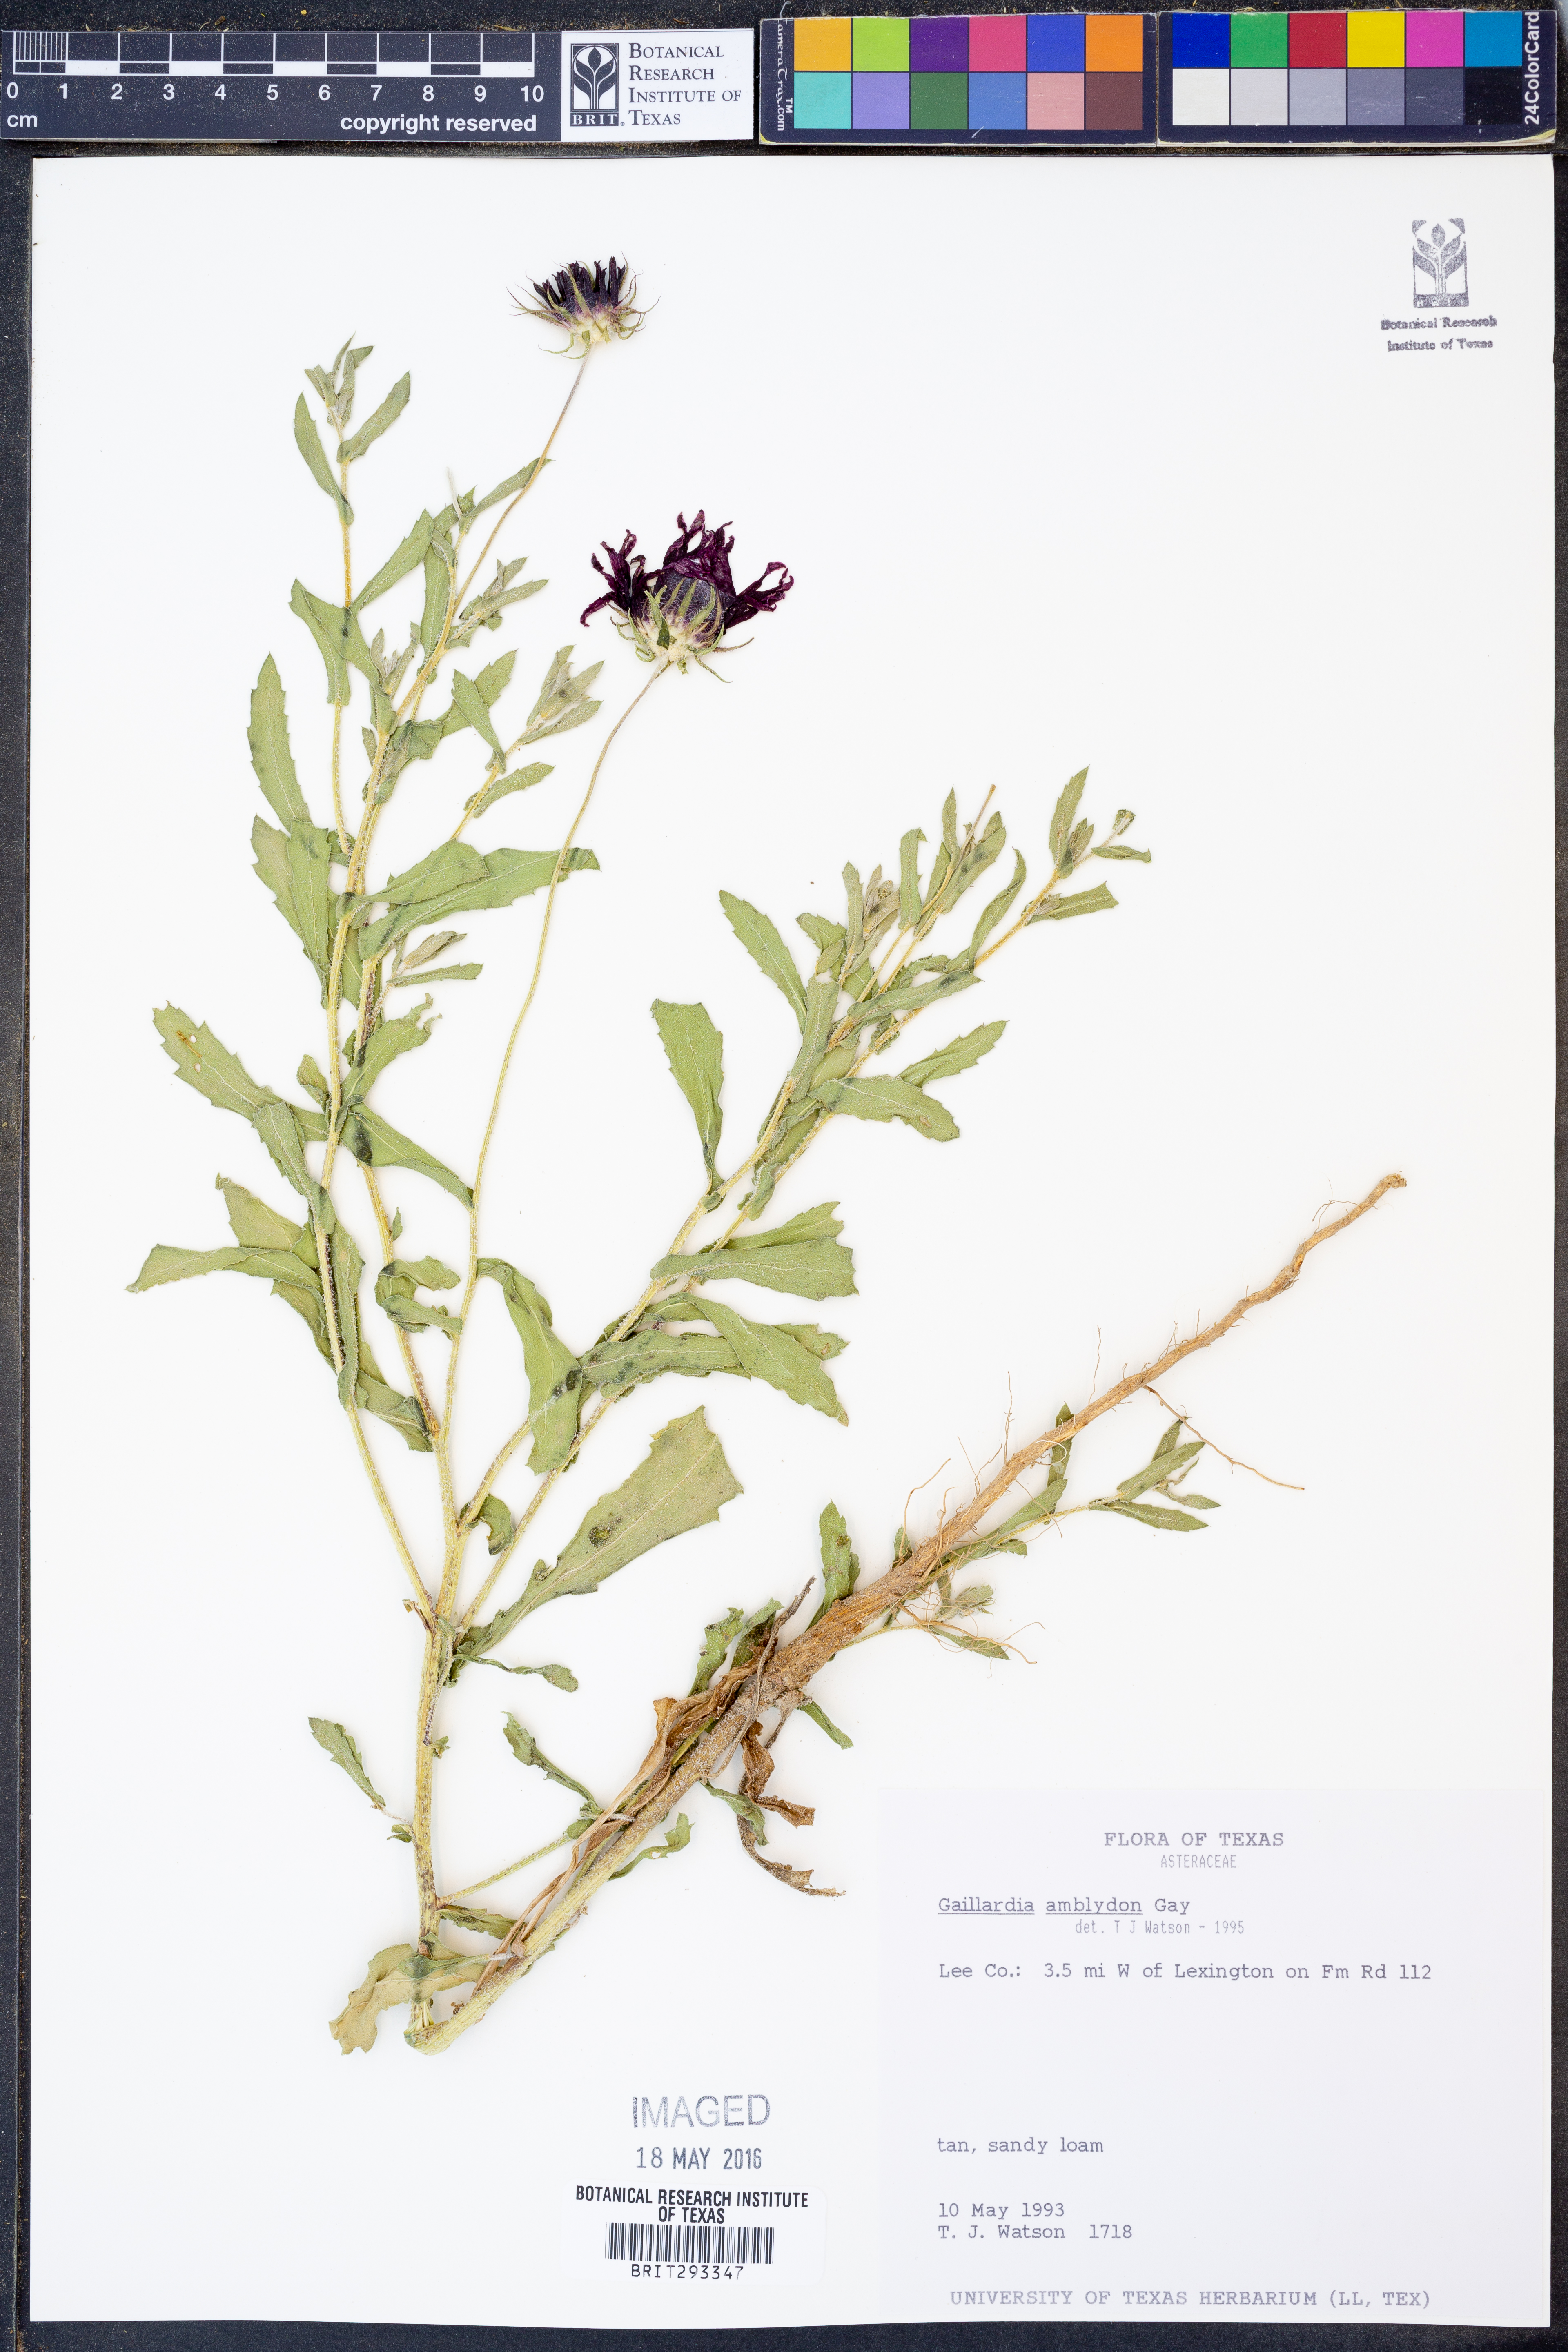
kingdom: Plantae
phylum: Tracheophyta
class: Magnoliopsida
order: Asterales
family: Asteraceae
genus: Gaillardia
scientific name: Gaillardia amblyodon
